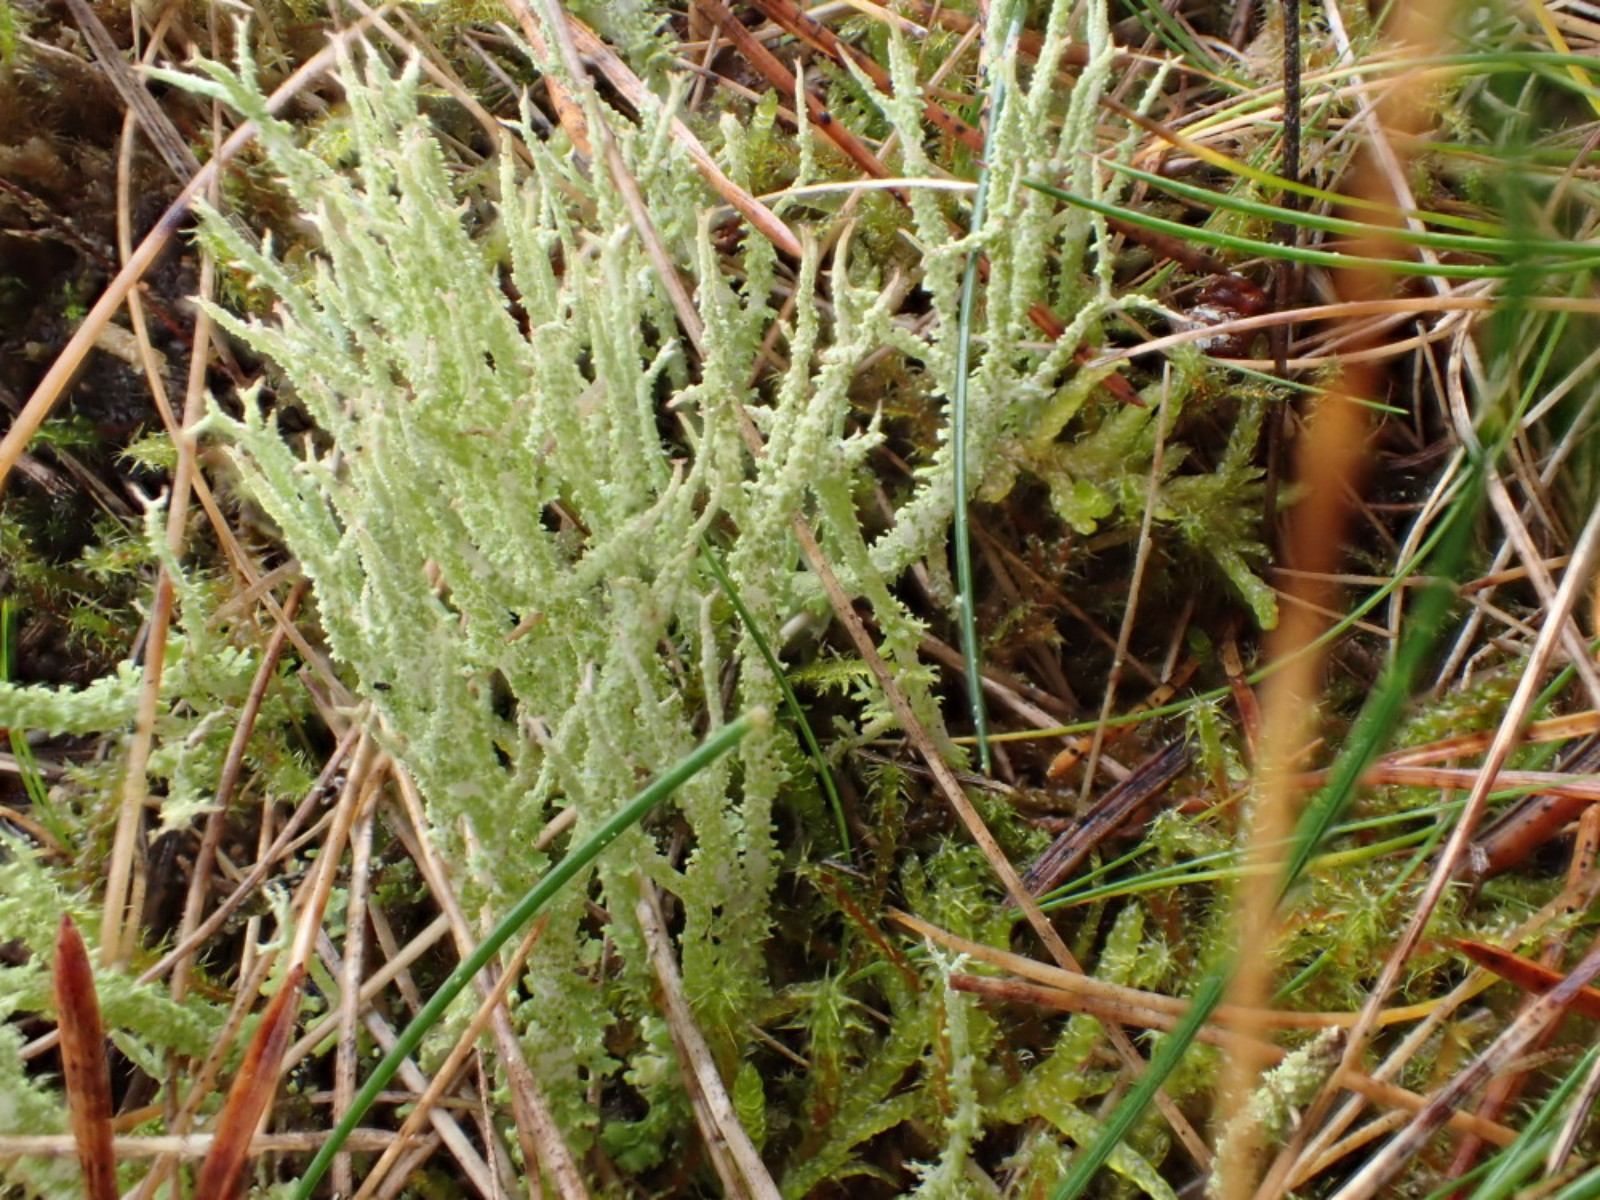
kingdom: Fungi
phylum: Ascomycota
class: Lecanoromycetes
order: Lecanorales
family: Cladoniaceae
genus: Cladonia
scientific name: Cladonia scabriuscula
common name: ru bægerlav
